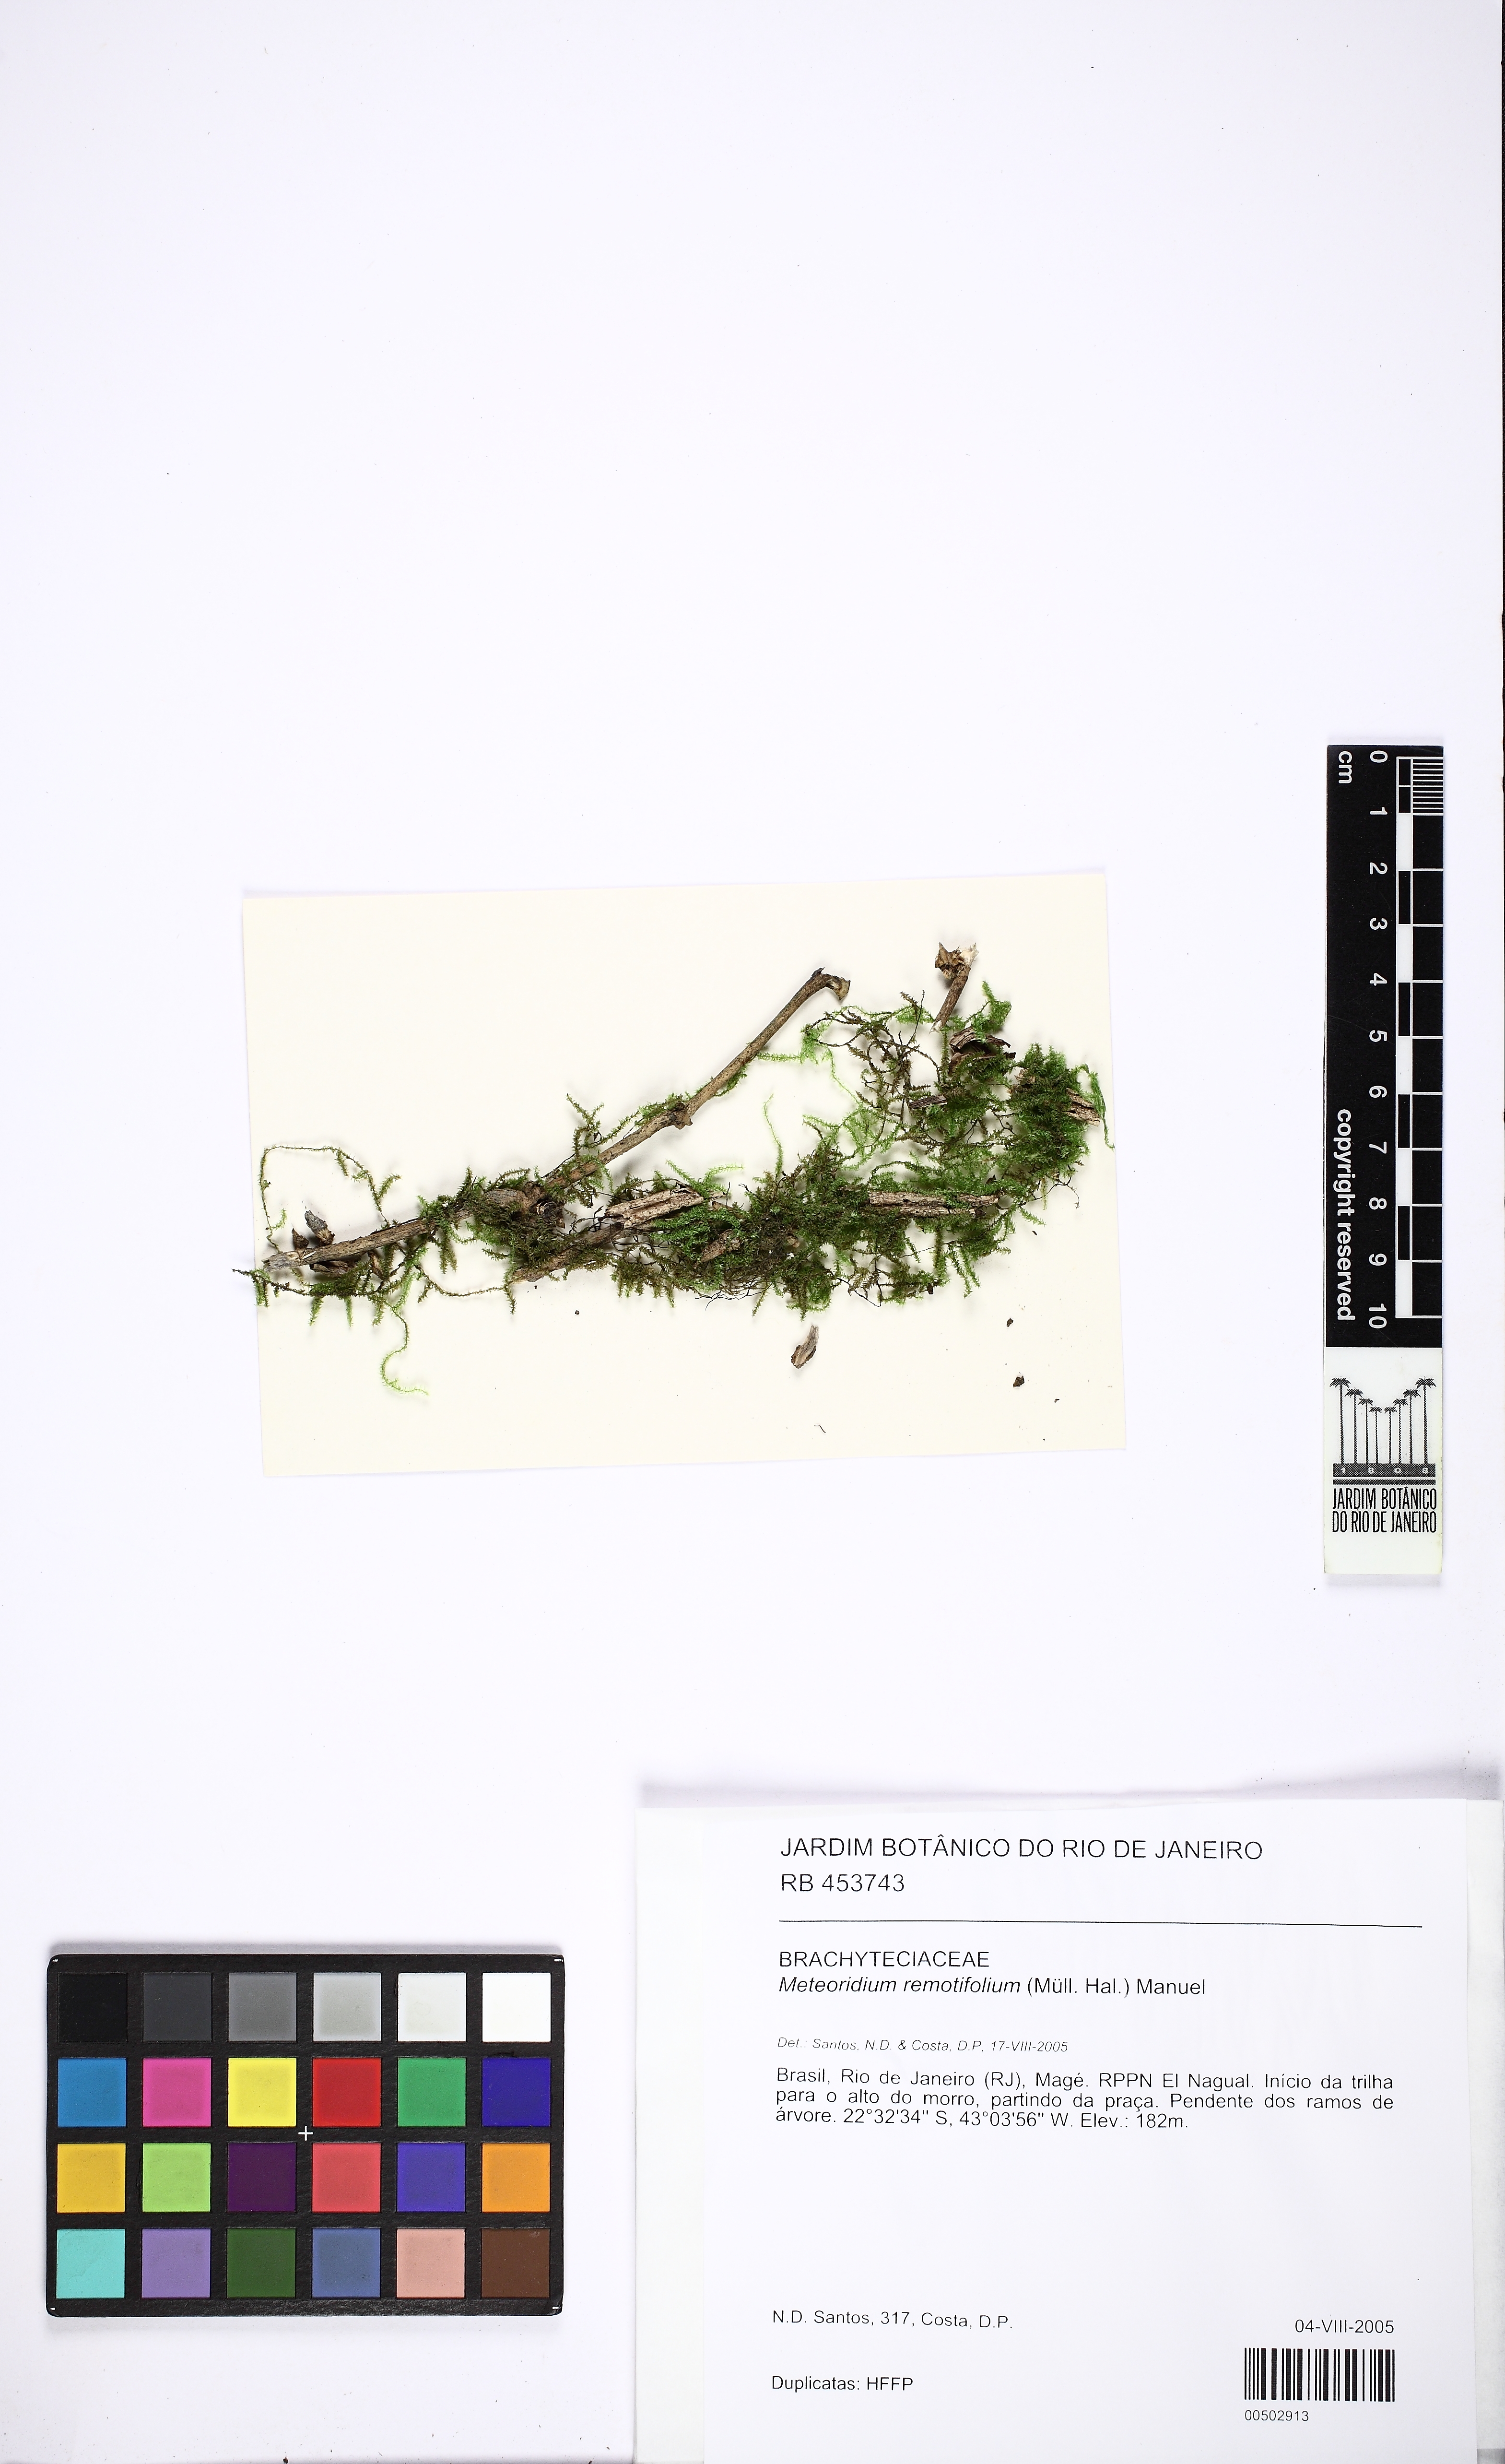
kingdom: Plantae
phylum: Bryophyta
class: Bryopsida
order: Hypnales
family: Brachytheciaceae
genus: Meteoridium
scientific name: Meteoridium remotifolium
